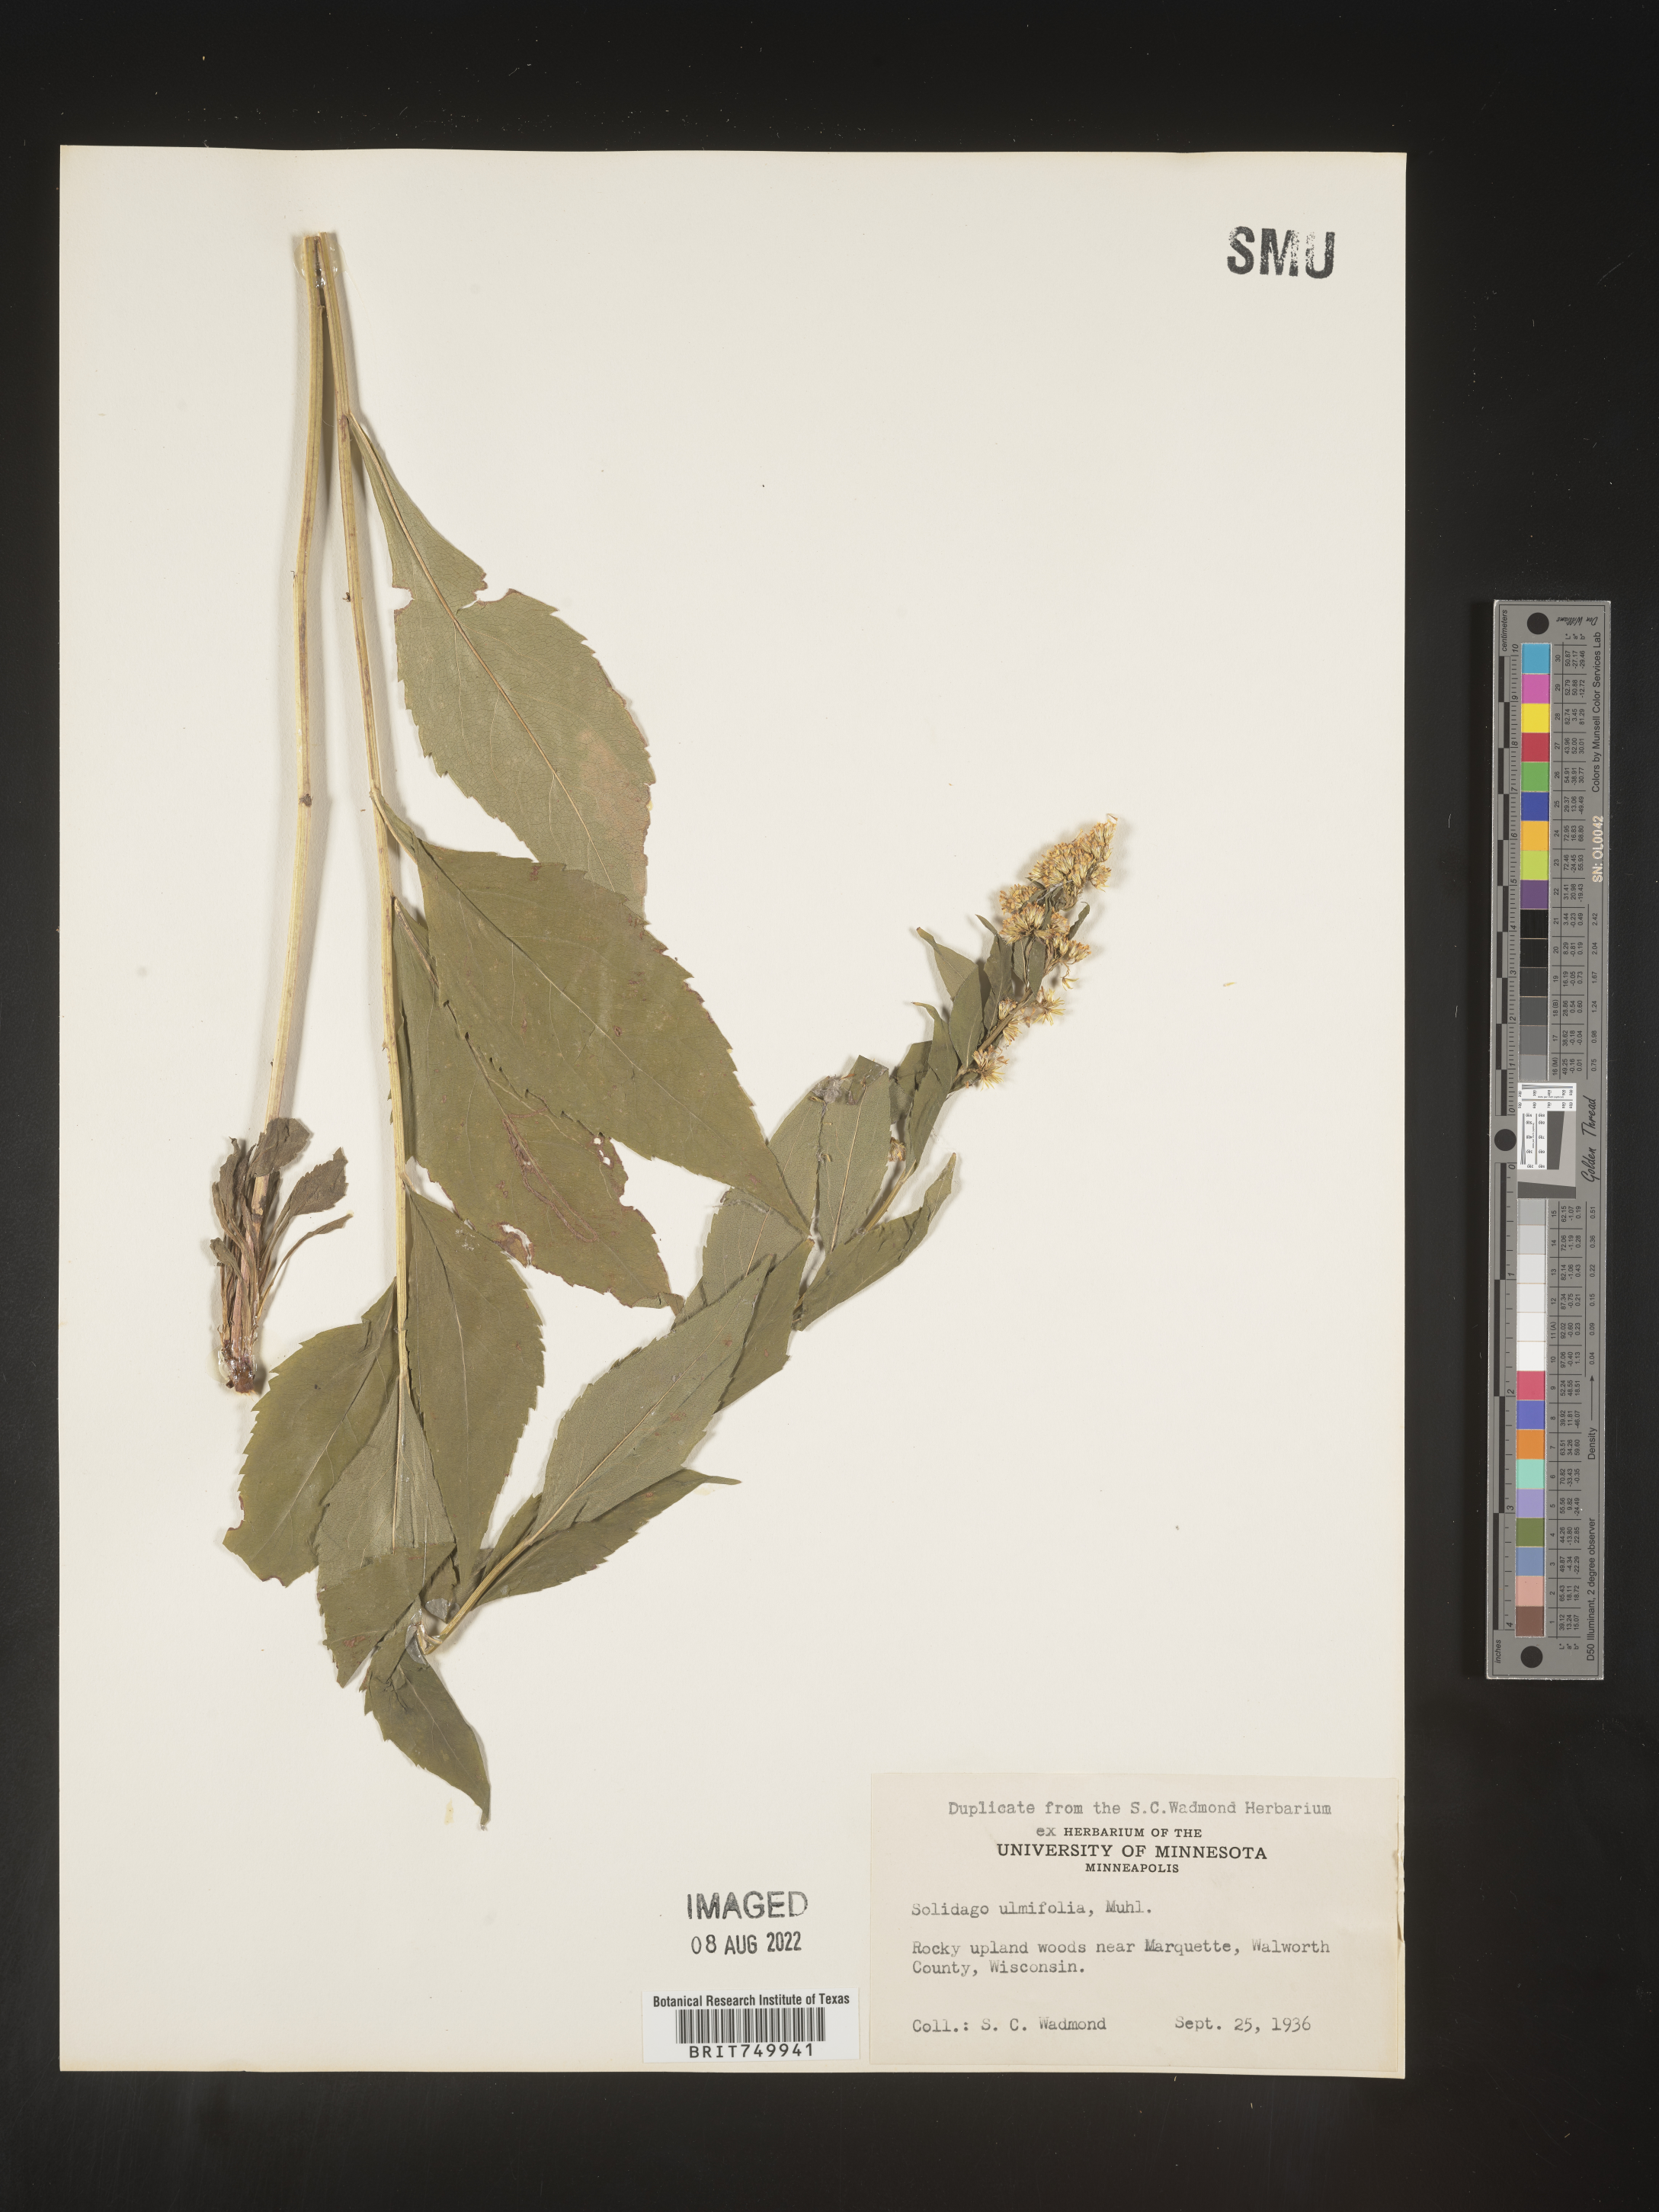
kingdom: Plantae
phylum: Tracheophyta
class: Magnoliopsida
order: Asterales
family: Asteraceae
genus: Solidago
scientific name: Solidago ulmifolia
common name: Elm-leaf goldenrod
